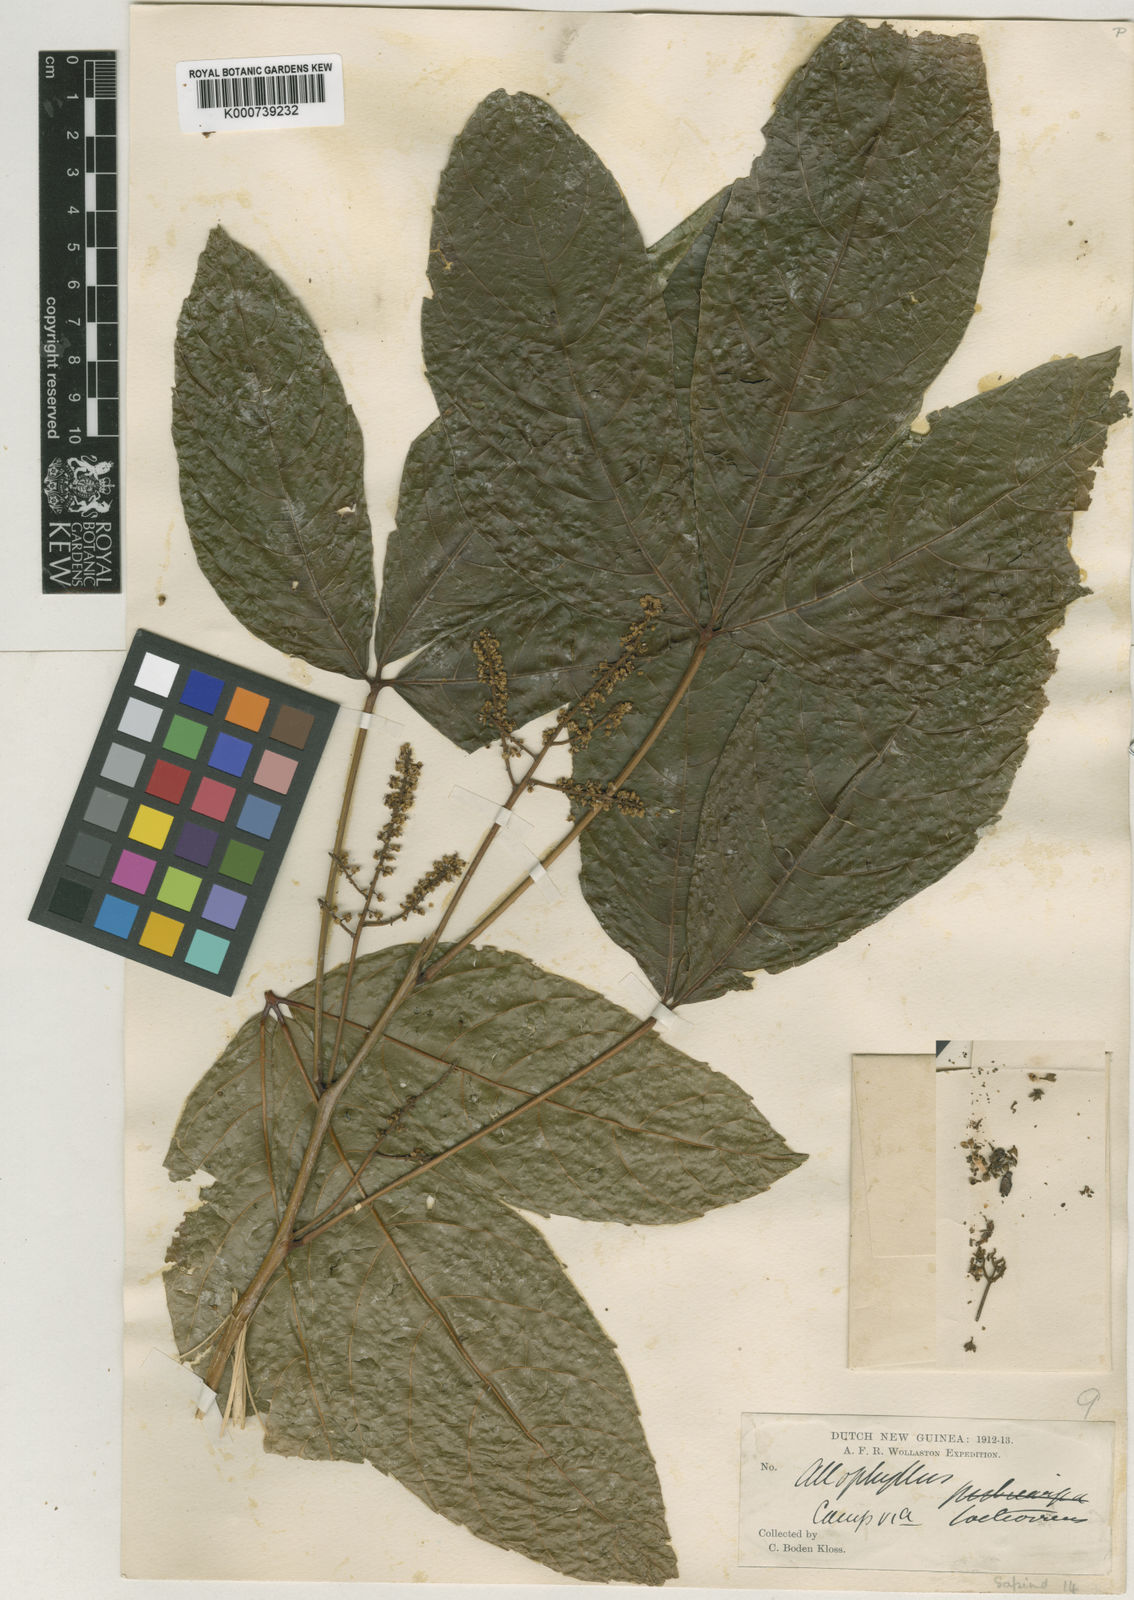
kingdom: Plantae
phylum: Tracheophyta
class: Magnoliopsida
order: Sapindales
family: Sapindaceae
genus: Allophylus
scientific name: Allophylus laetevirens
